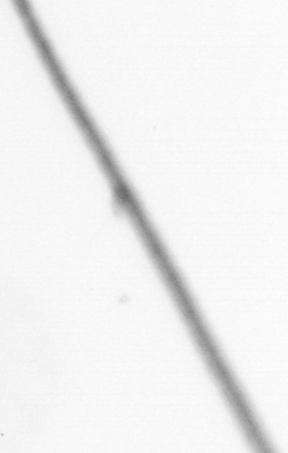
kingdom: Chromista
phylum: Ochrophyta
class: Bacillariophyceae
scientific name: Bacillariophyceae
